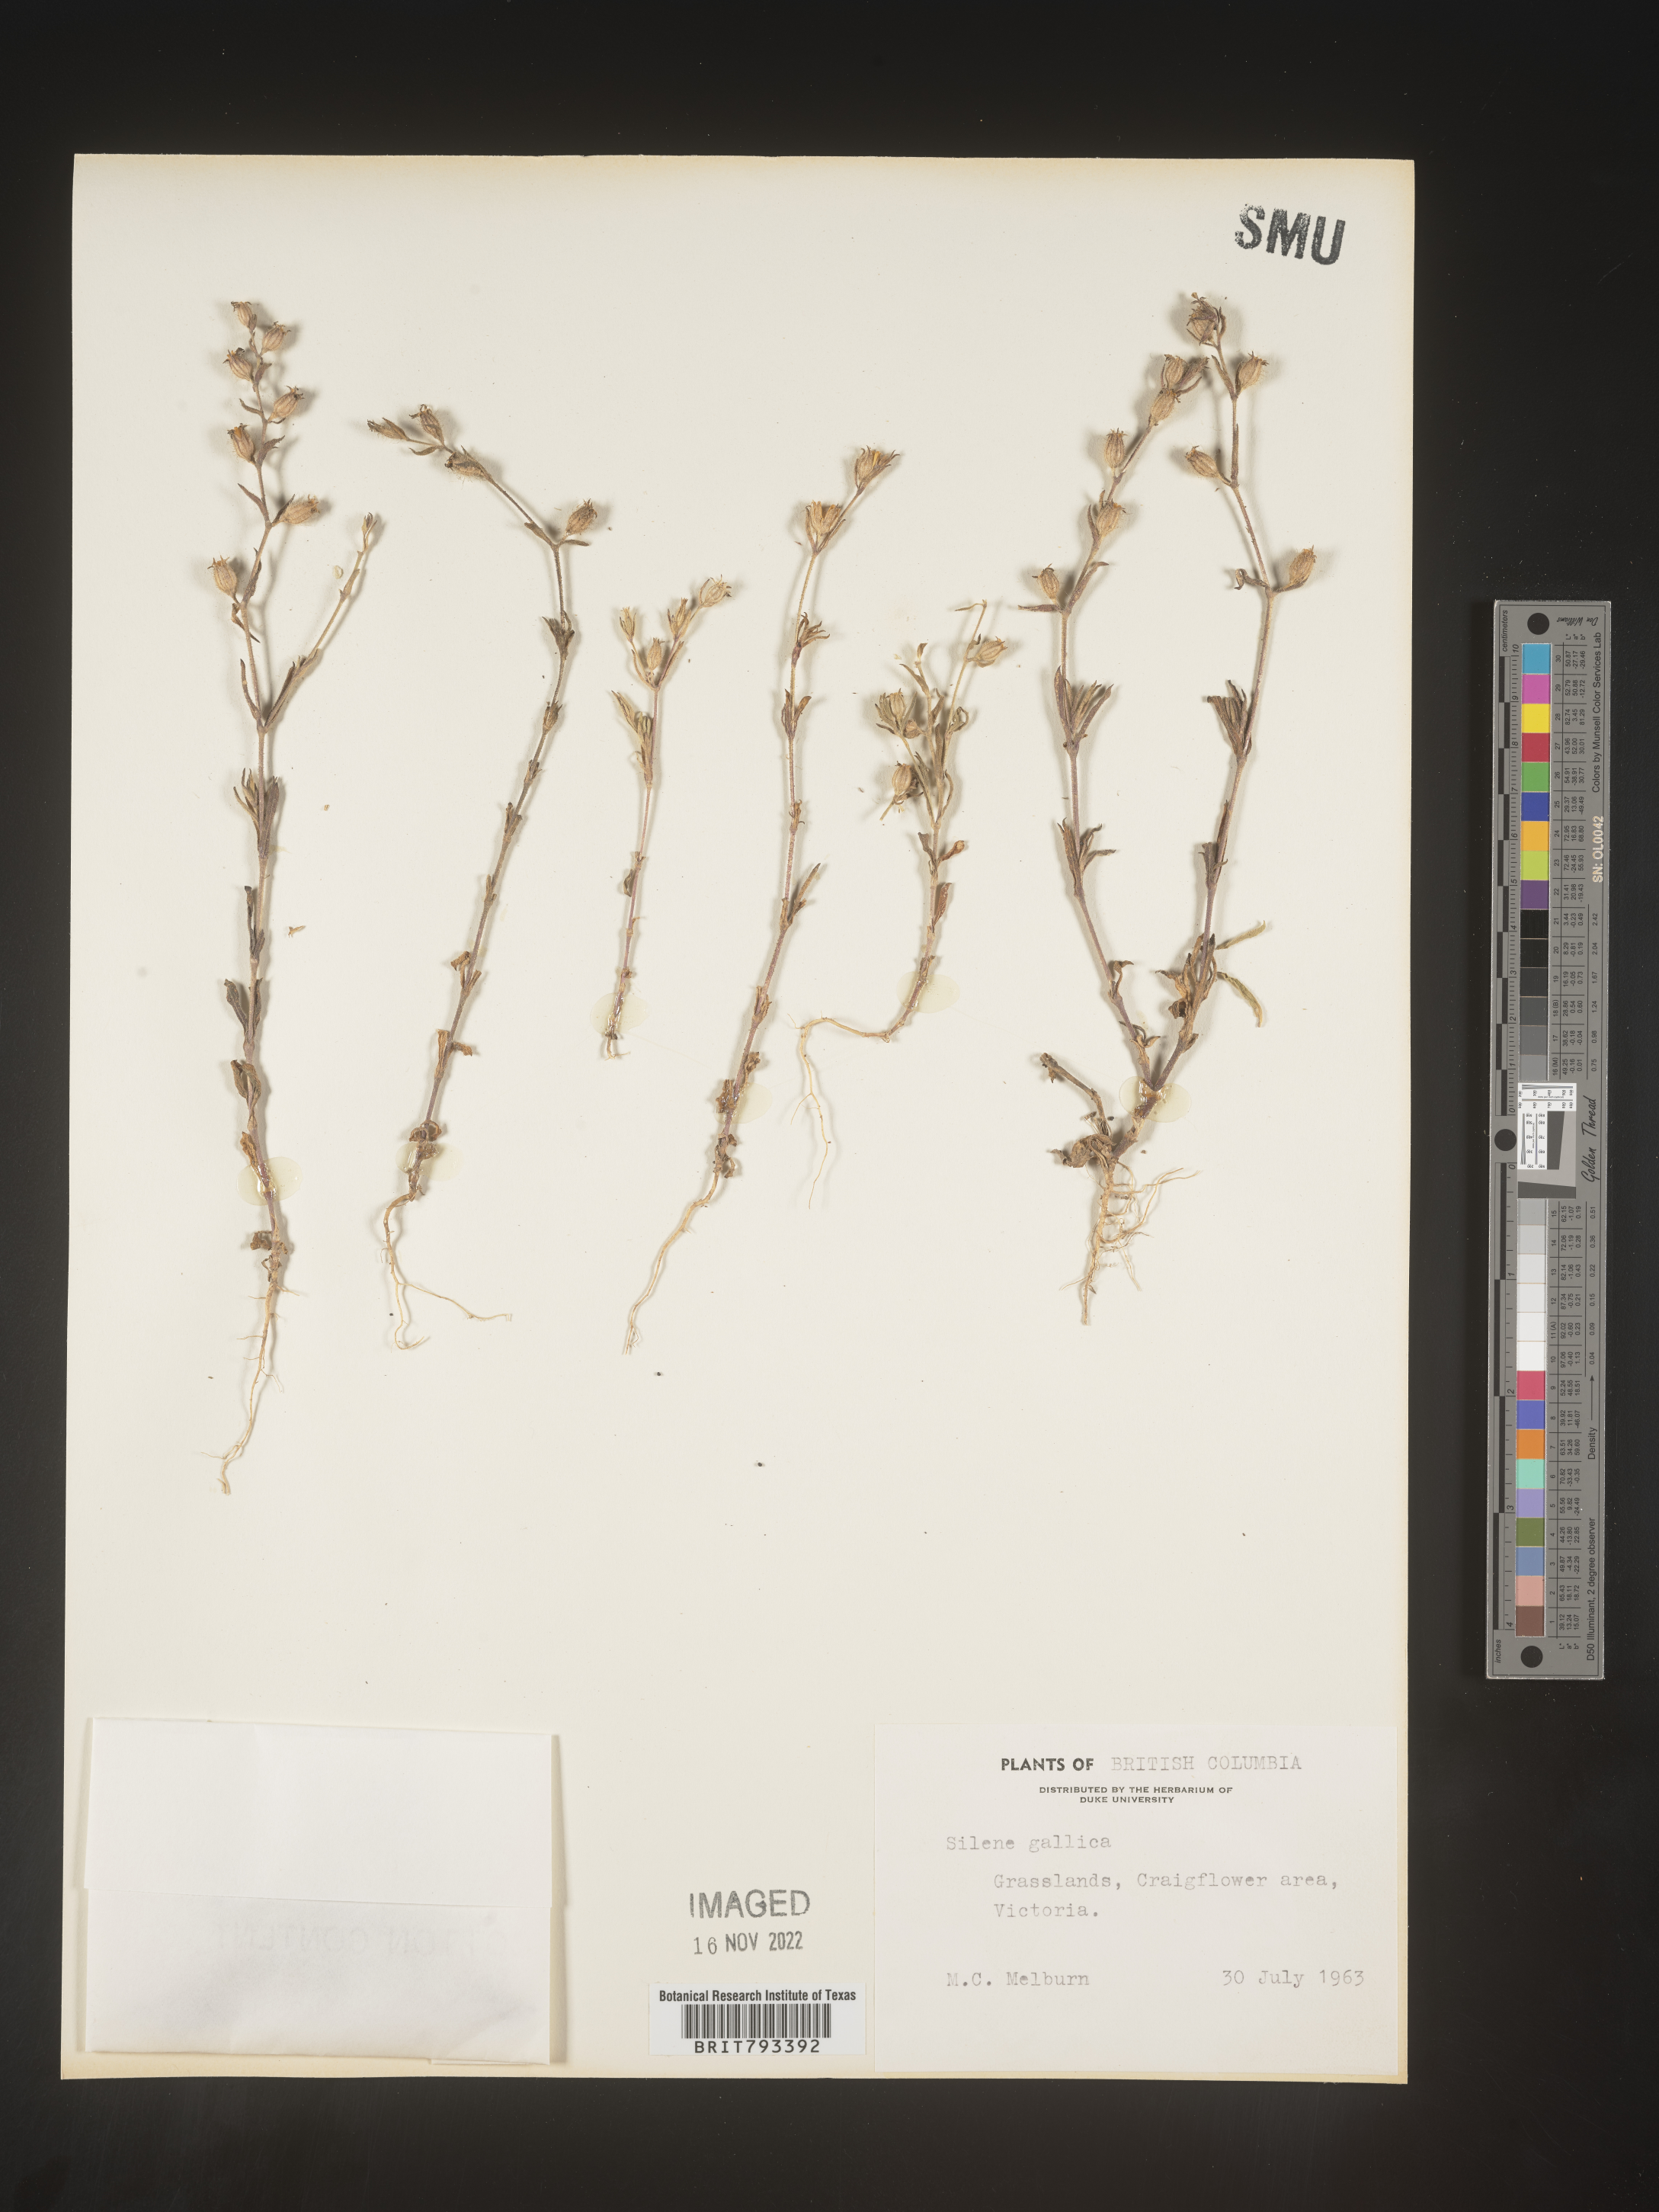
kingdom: Plantae
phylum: Tracheophyta
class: Magnoliopsida
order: Caryophyllales
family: Caryophyllaceae
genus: Silene
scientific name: Silene gallica
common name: Small-flowered catchfly
